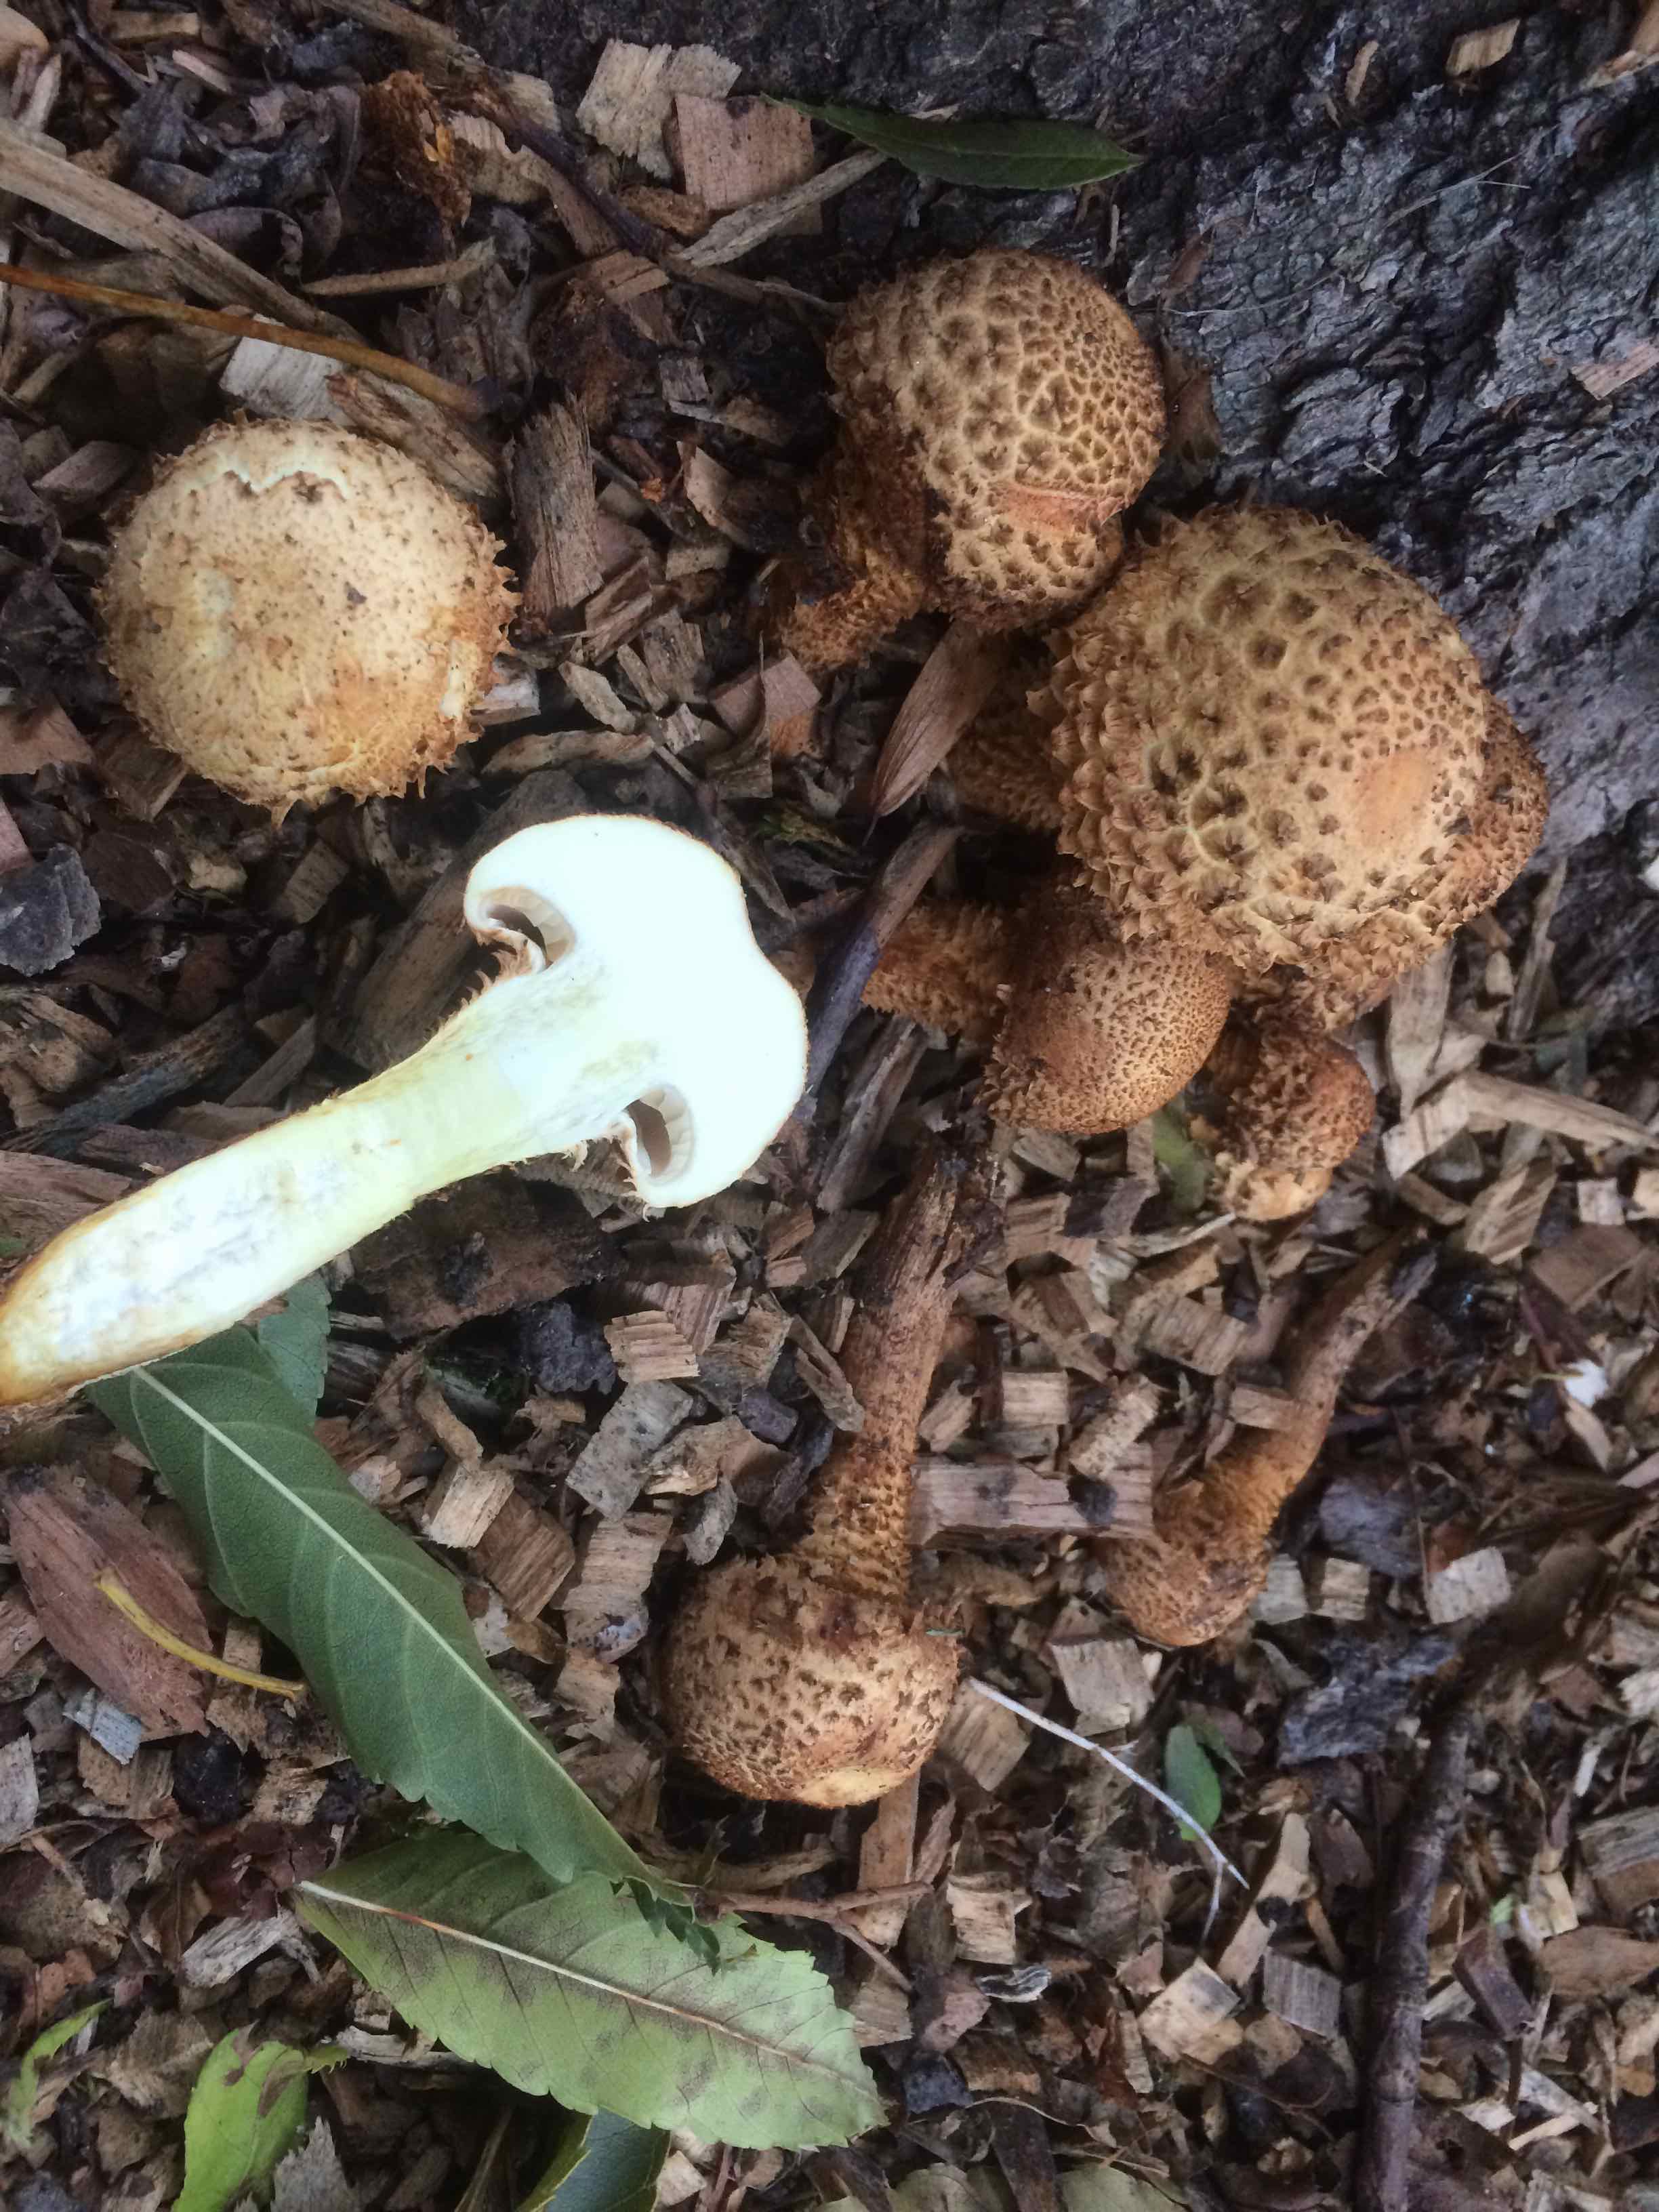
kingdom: Fungi
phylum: Basidiomycota
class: Agaricomycetes
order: Agaricales
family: Strophariaceae
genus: Pholiota
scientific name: Pholiota squarrosa
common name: krumskællet skælhat
